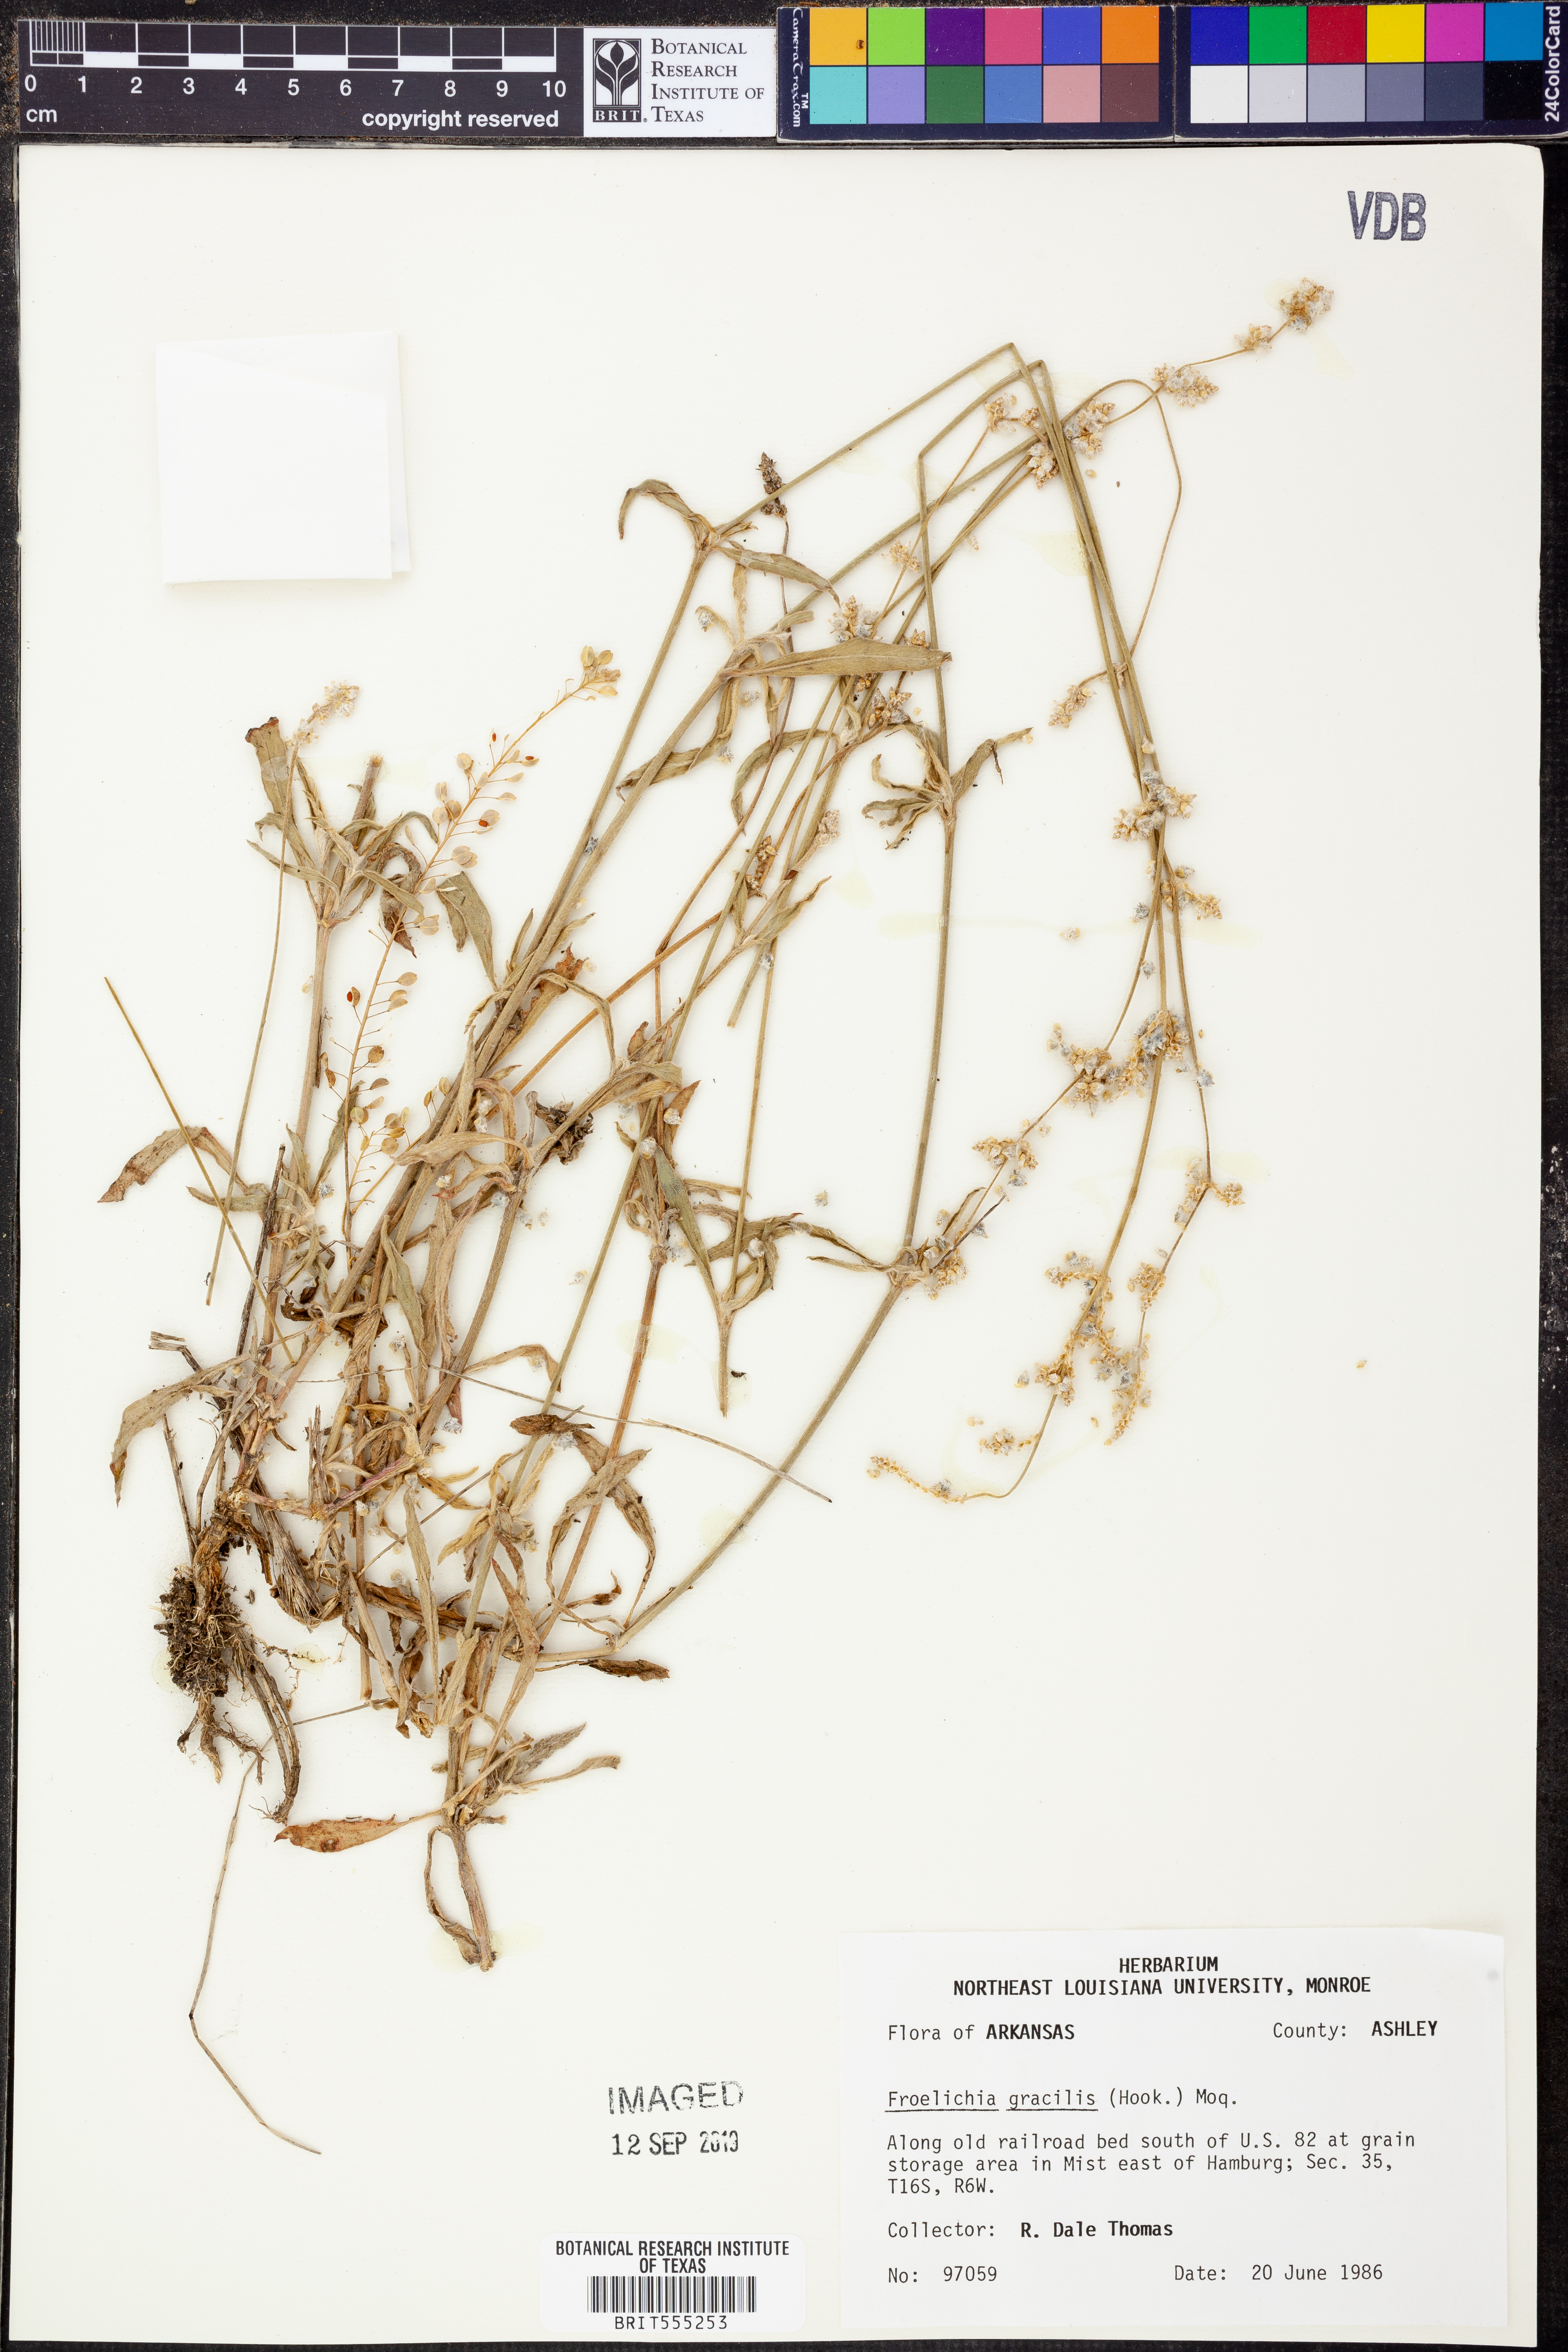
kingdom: Plantae
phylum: Tracheophyta
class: Magnoliopsida
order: Caryophyllales
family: Amaranthaceae
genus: Froelichia
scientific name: Froelichia gracilis
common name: Slender cottonweed
